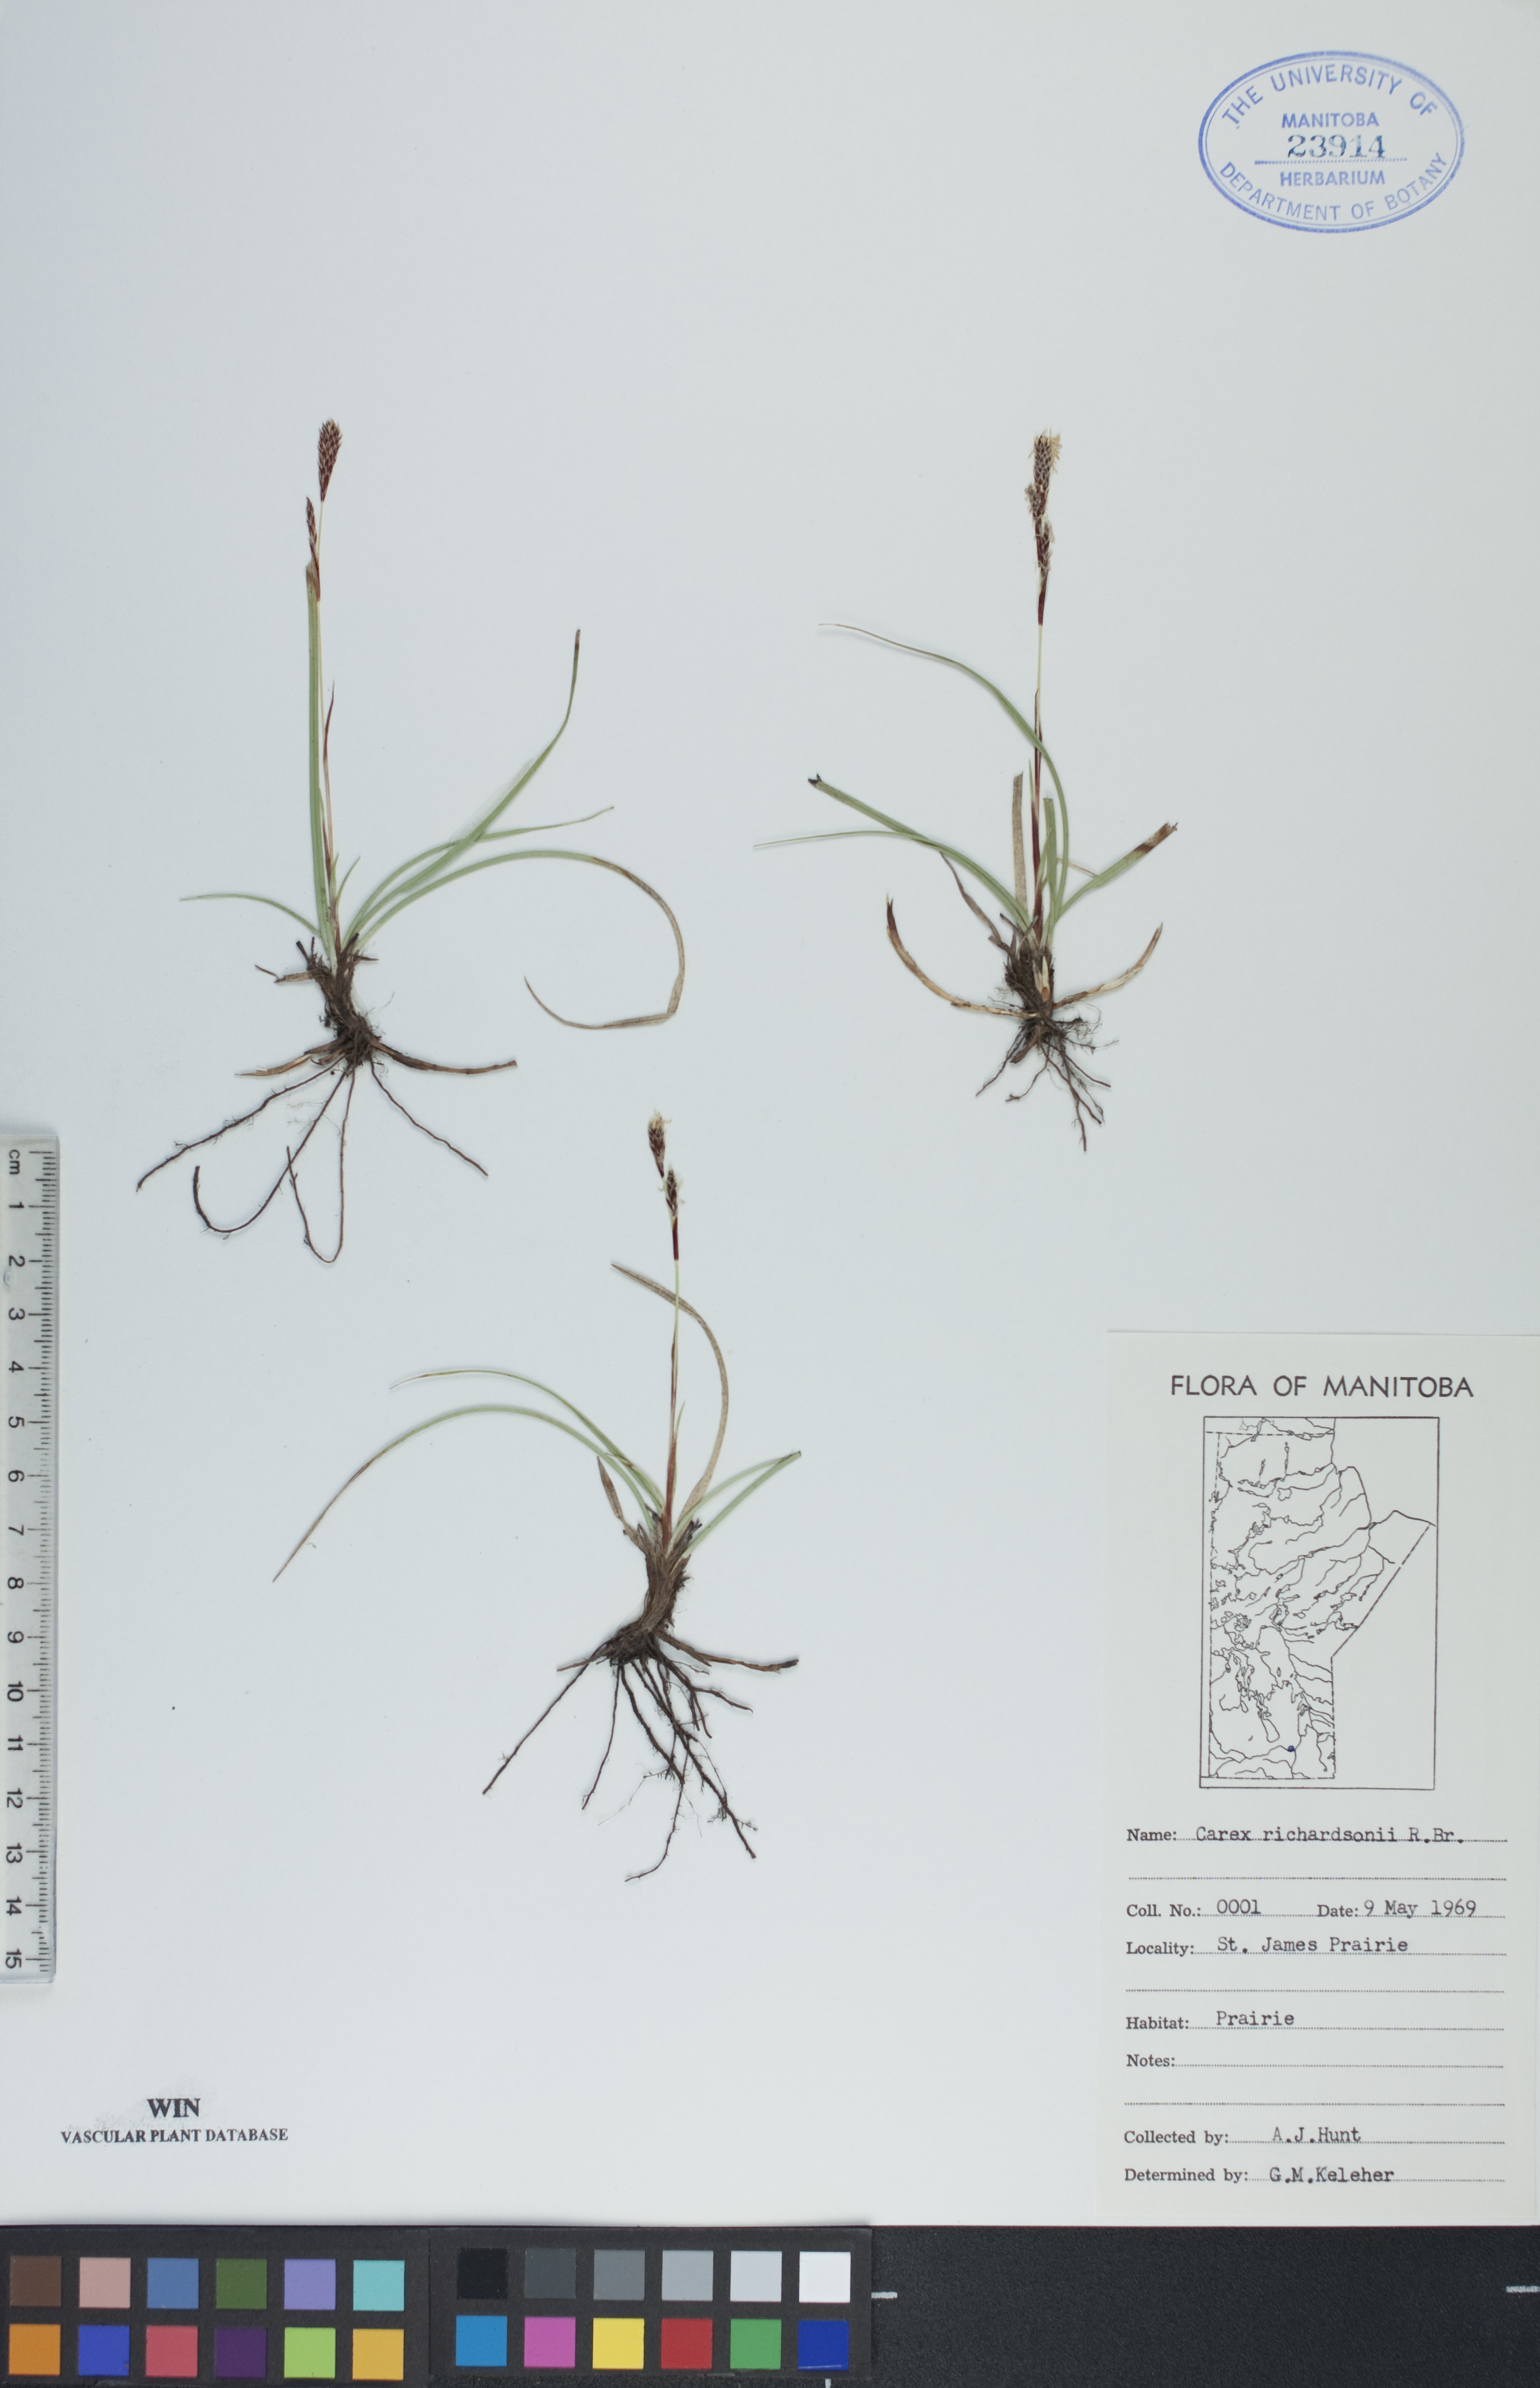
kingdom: Plantae
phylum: Tracheophyta
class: Liliopsida
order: Poales
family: Cyperaceae
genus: Carex
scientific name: Carex richardsonii
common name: Prairie hummock sedge
